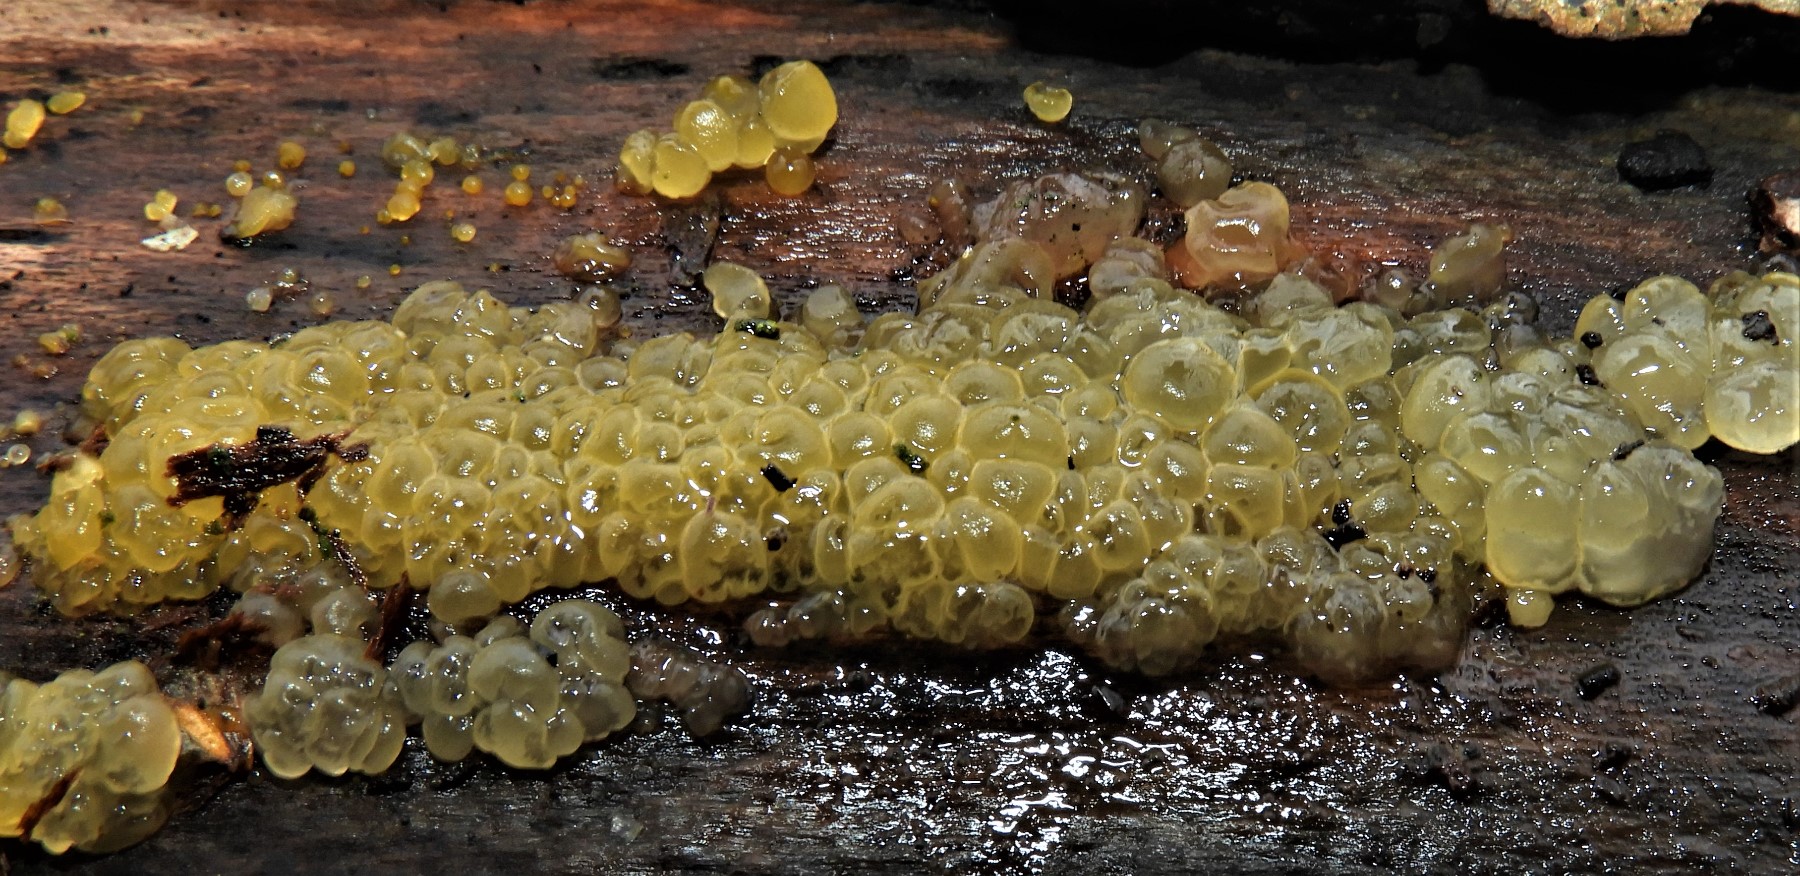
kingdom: Fungi
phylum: Basidiomycota
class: Dacrymycetes
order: Dacrymycetales
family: Dacrymycetaceae
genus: Dacrymyces
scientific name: Dacrymyces
